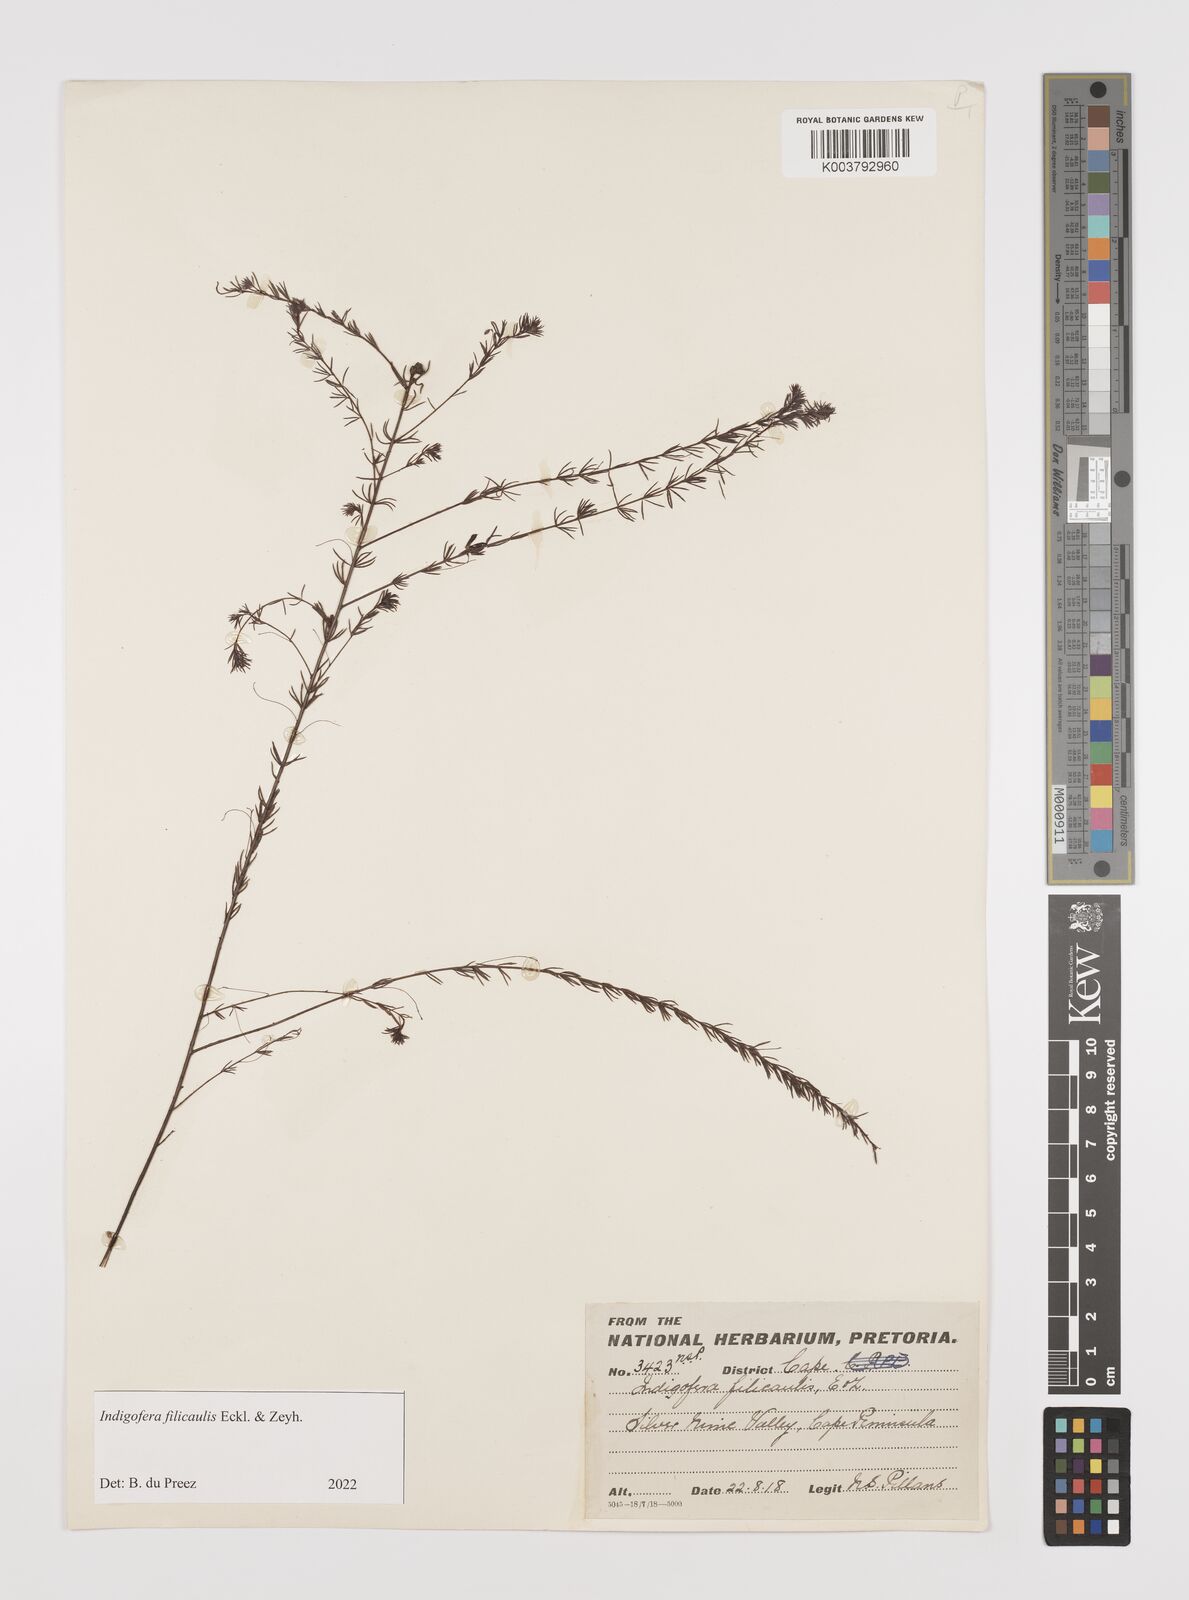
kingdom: Plantae
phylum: Tracheophyta
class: Magnoliopsida
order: Fabales
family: Fabaceae
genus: Indigofera
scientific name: Indigofera filicaulis
